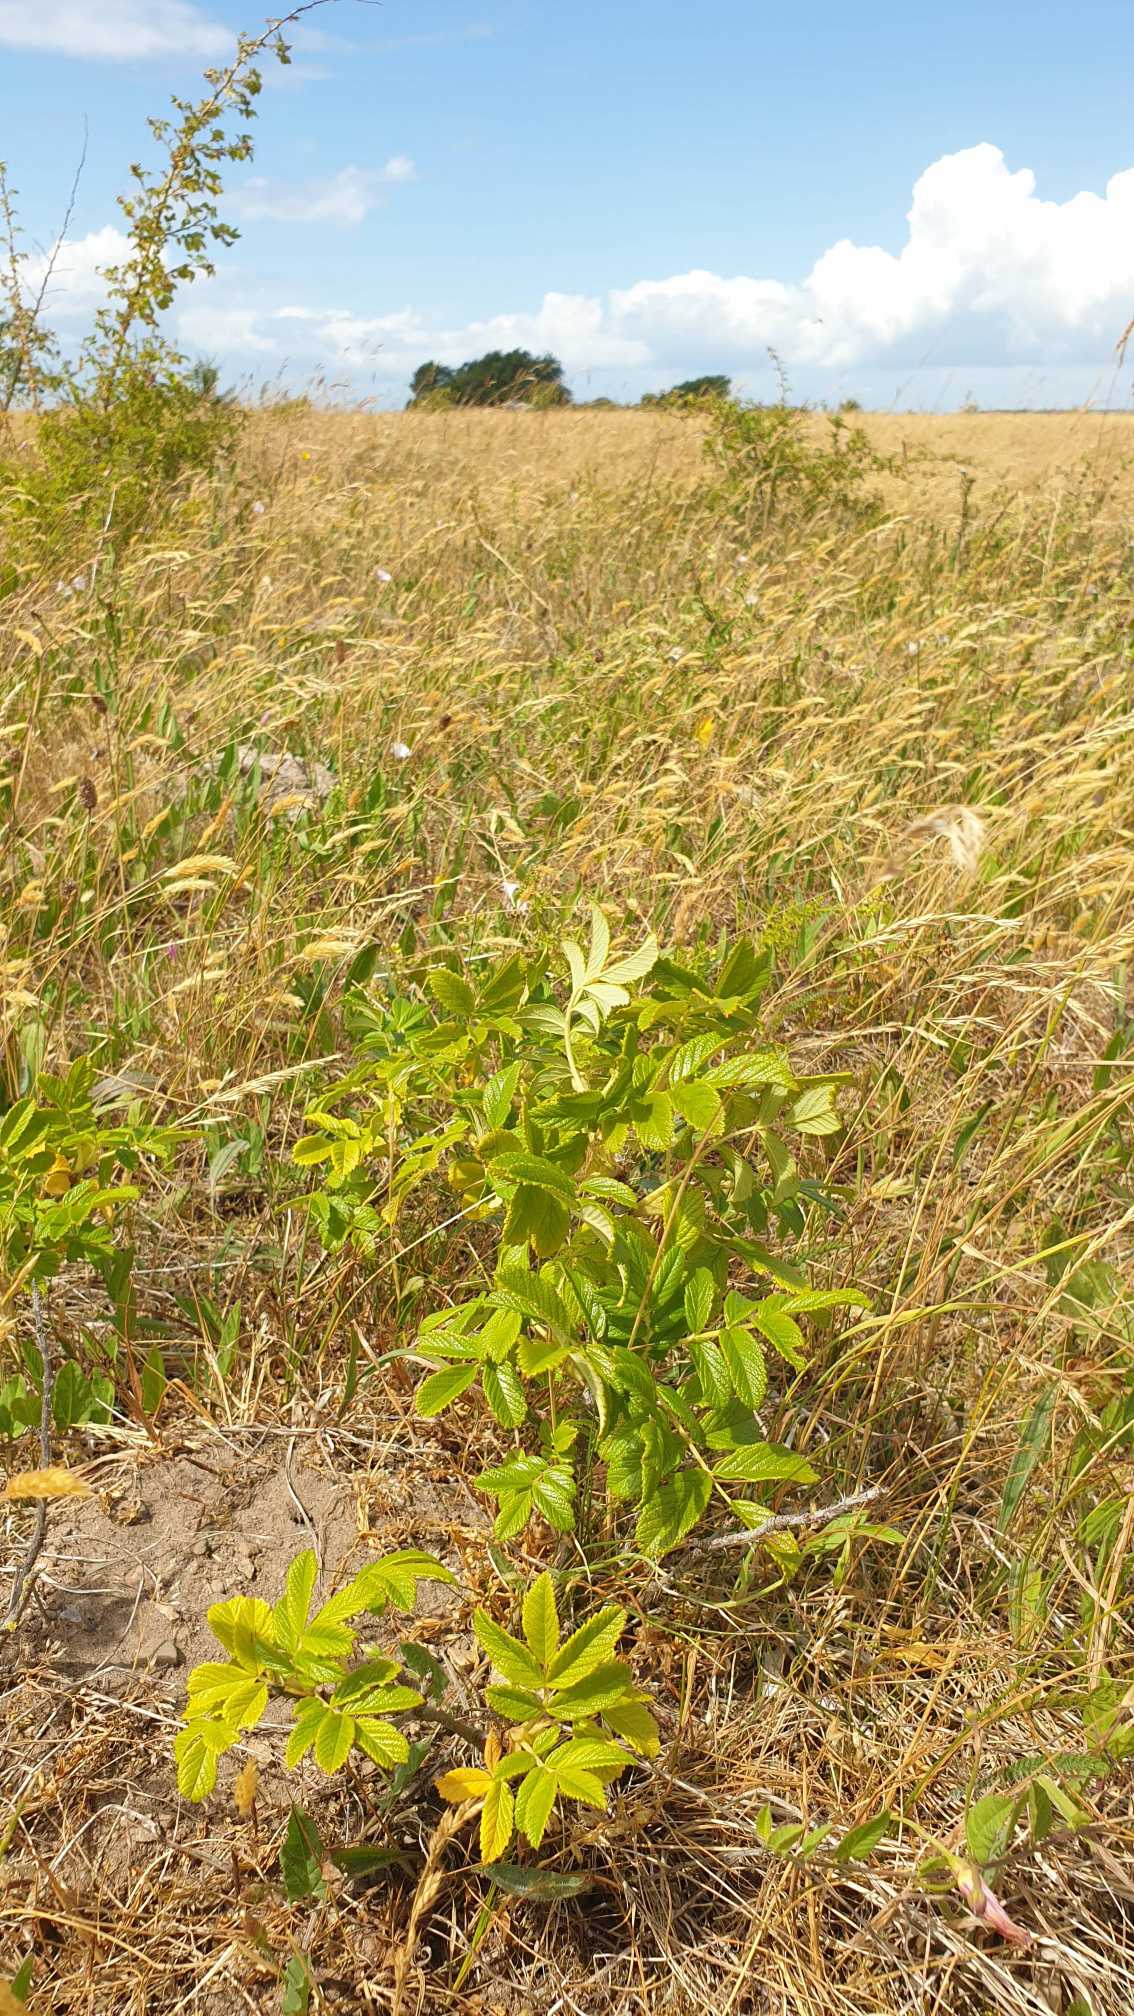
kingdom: Plantae
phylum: Tracheophyta
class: Magnoliopsida
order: Rosales
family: Rosaceae
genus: Rosa
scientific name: Rosa rugosa
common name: Rynket rose
